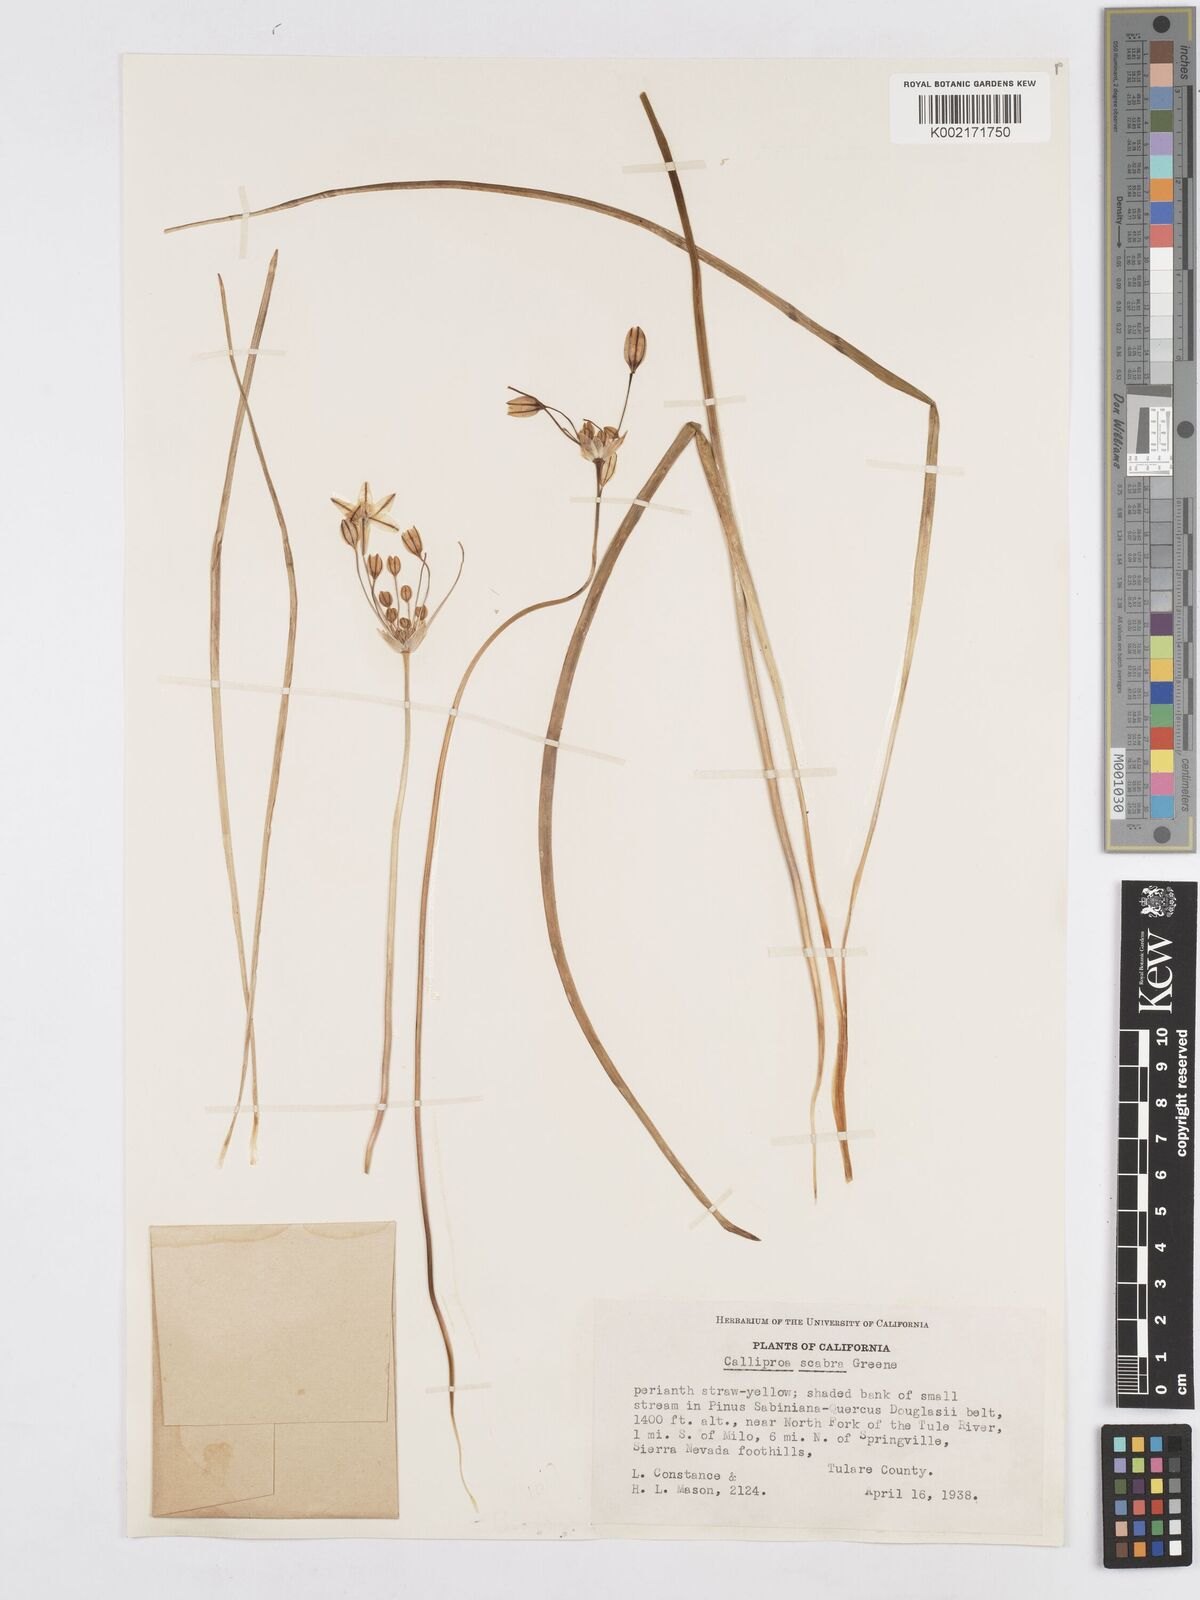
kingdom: Plantae
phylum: Tracheophyta
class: Liliopsida
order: Asparagales
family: Asparagaceae
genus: Triteleia
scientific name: Triteleia ixioides
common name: Yellow-brodiaea
